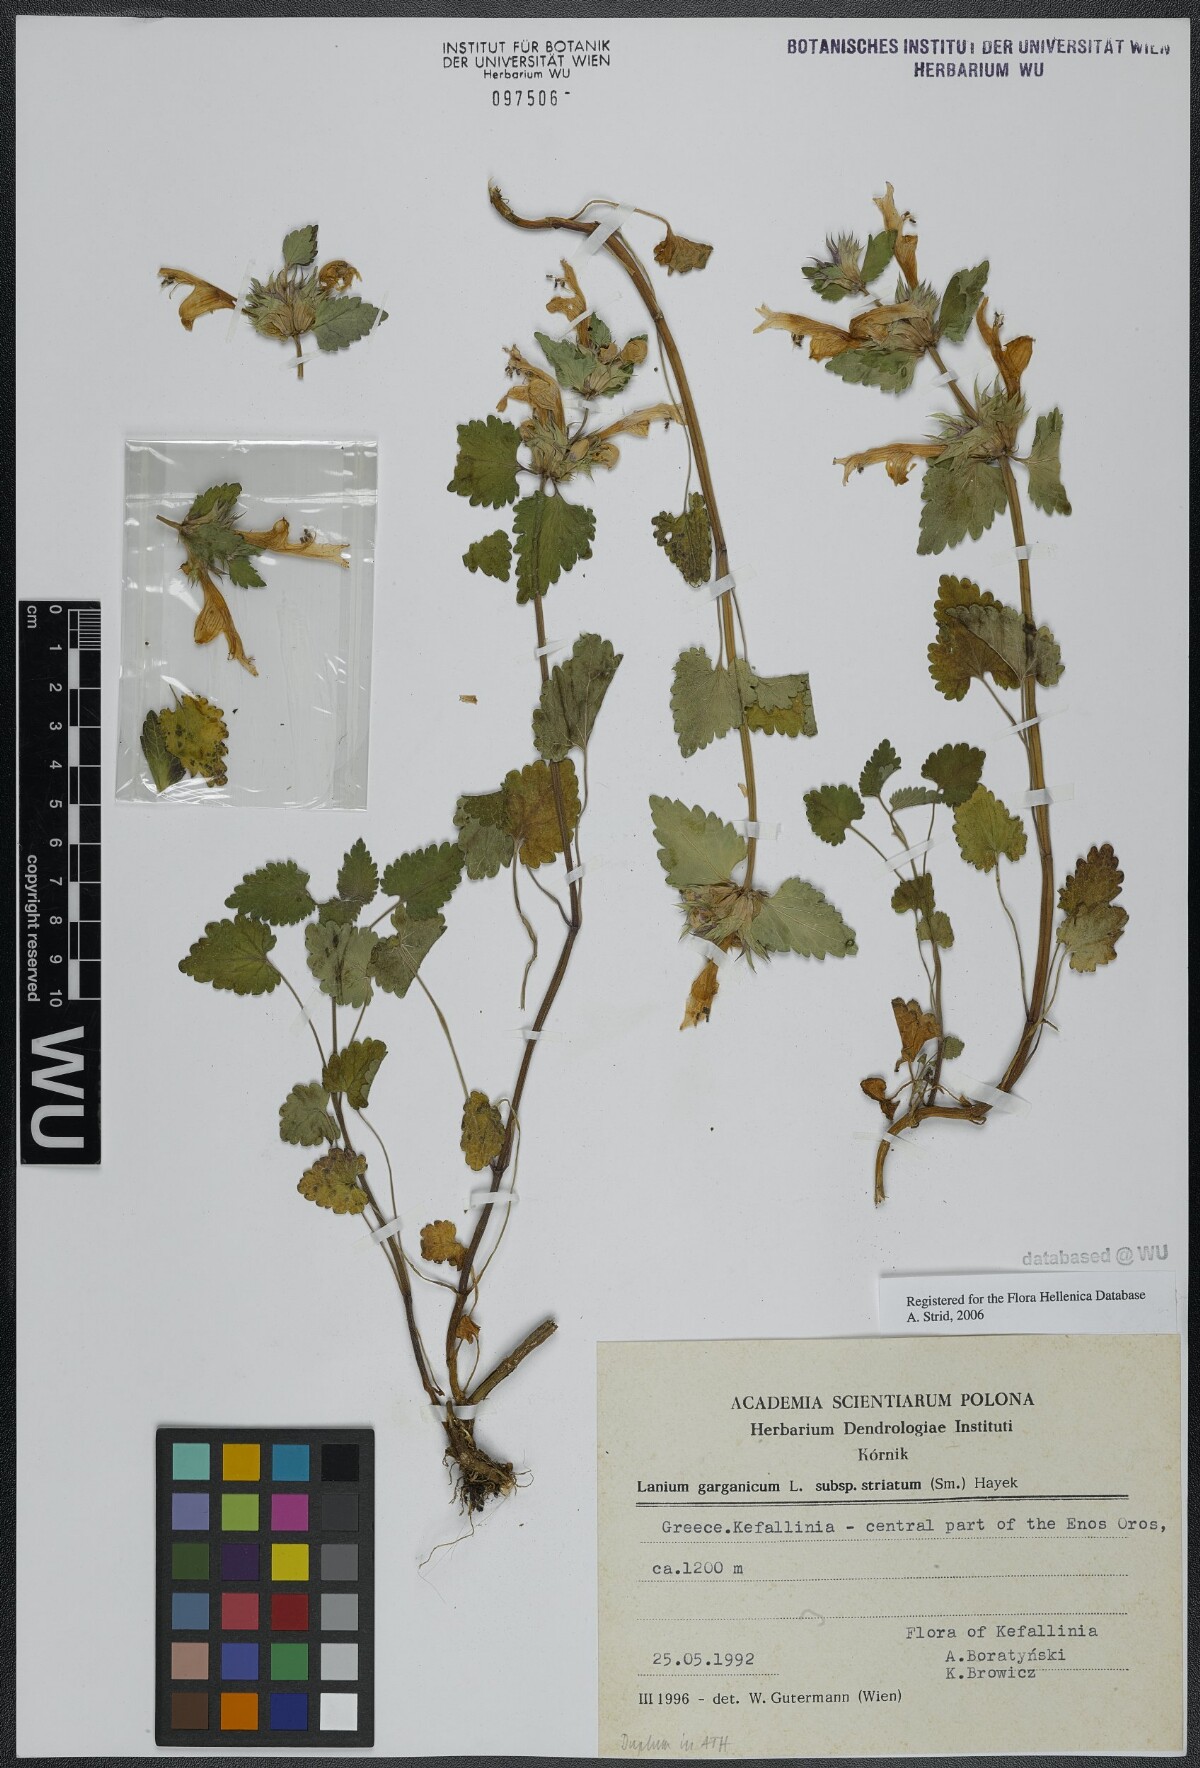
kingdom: Plantae
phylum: Tracheophyta
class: Magnoliopsida
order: Lamiales
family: Lamiaceae
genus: Lamium
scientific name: Lamium garganicum
